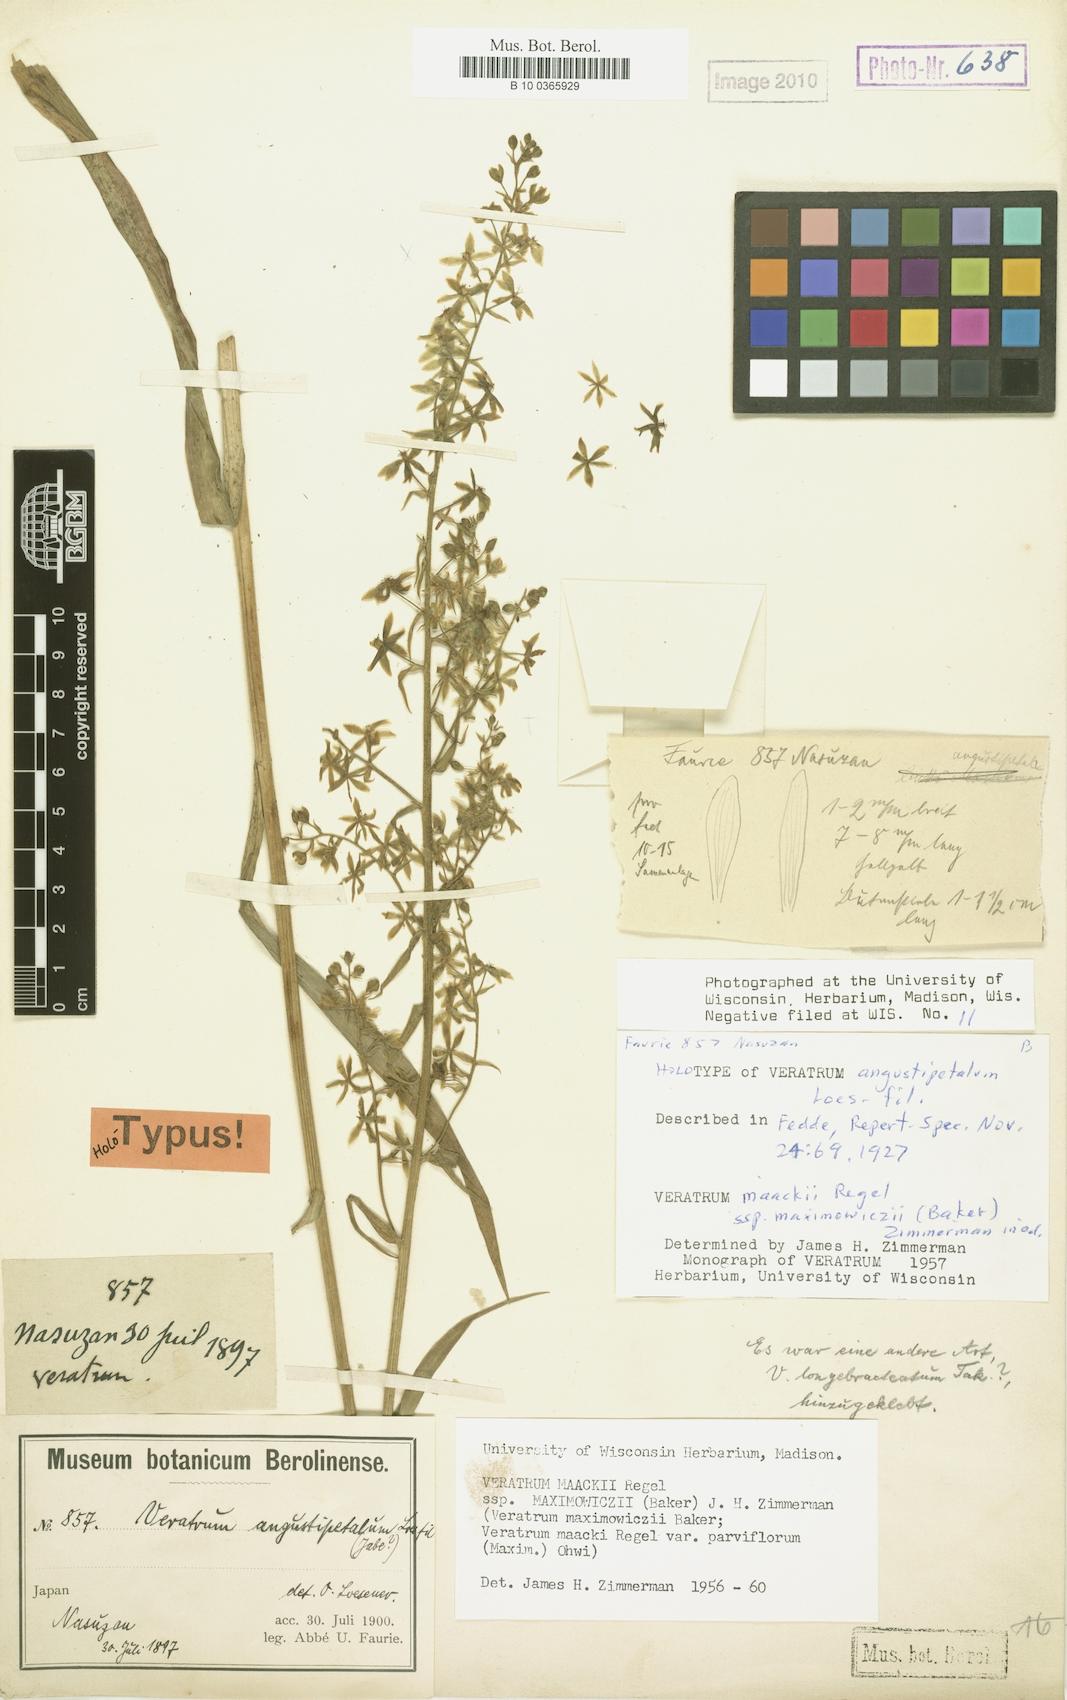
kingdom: Plantae
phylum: Tracheophyta
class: Liliopsida
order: Liliales
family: Melanthiaceae
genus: Veratrum
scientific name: Veratrum maackii
